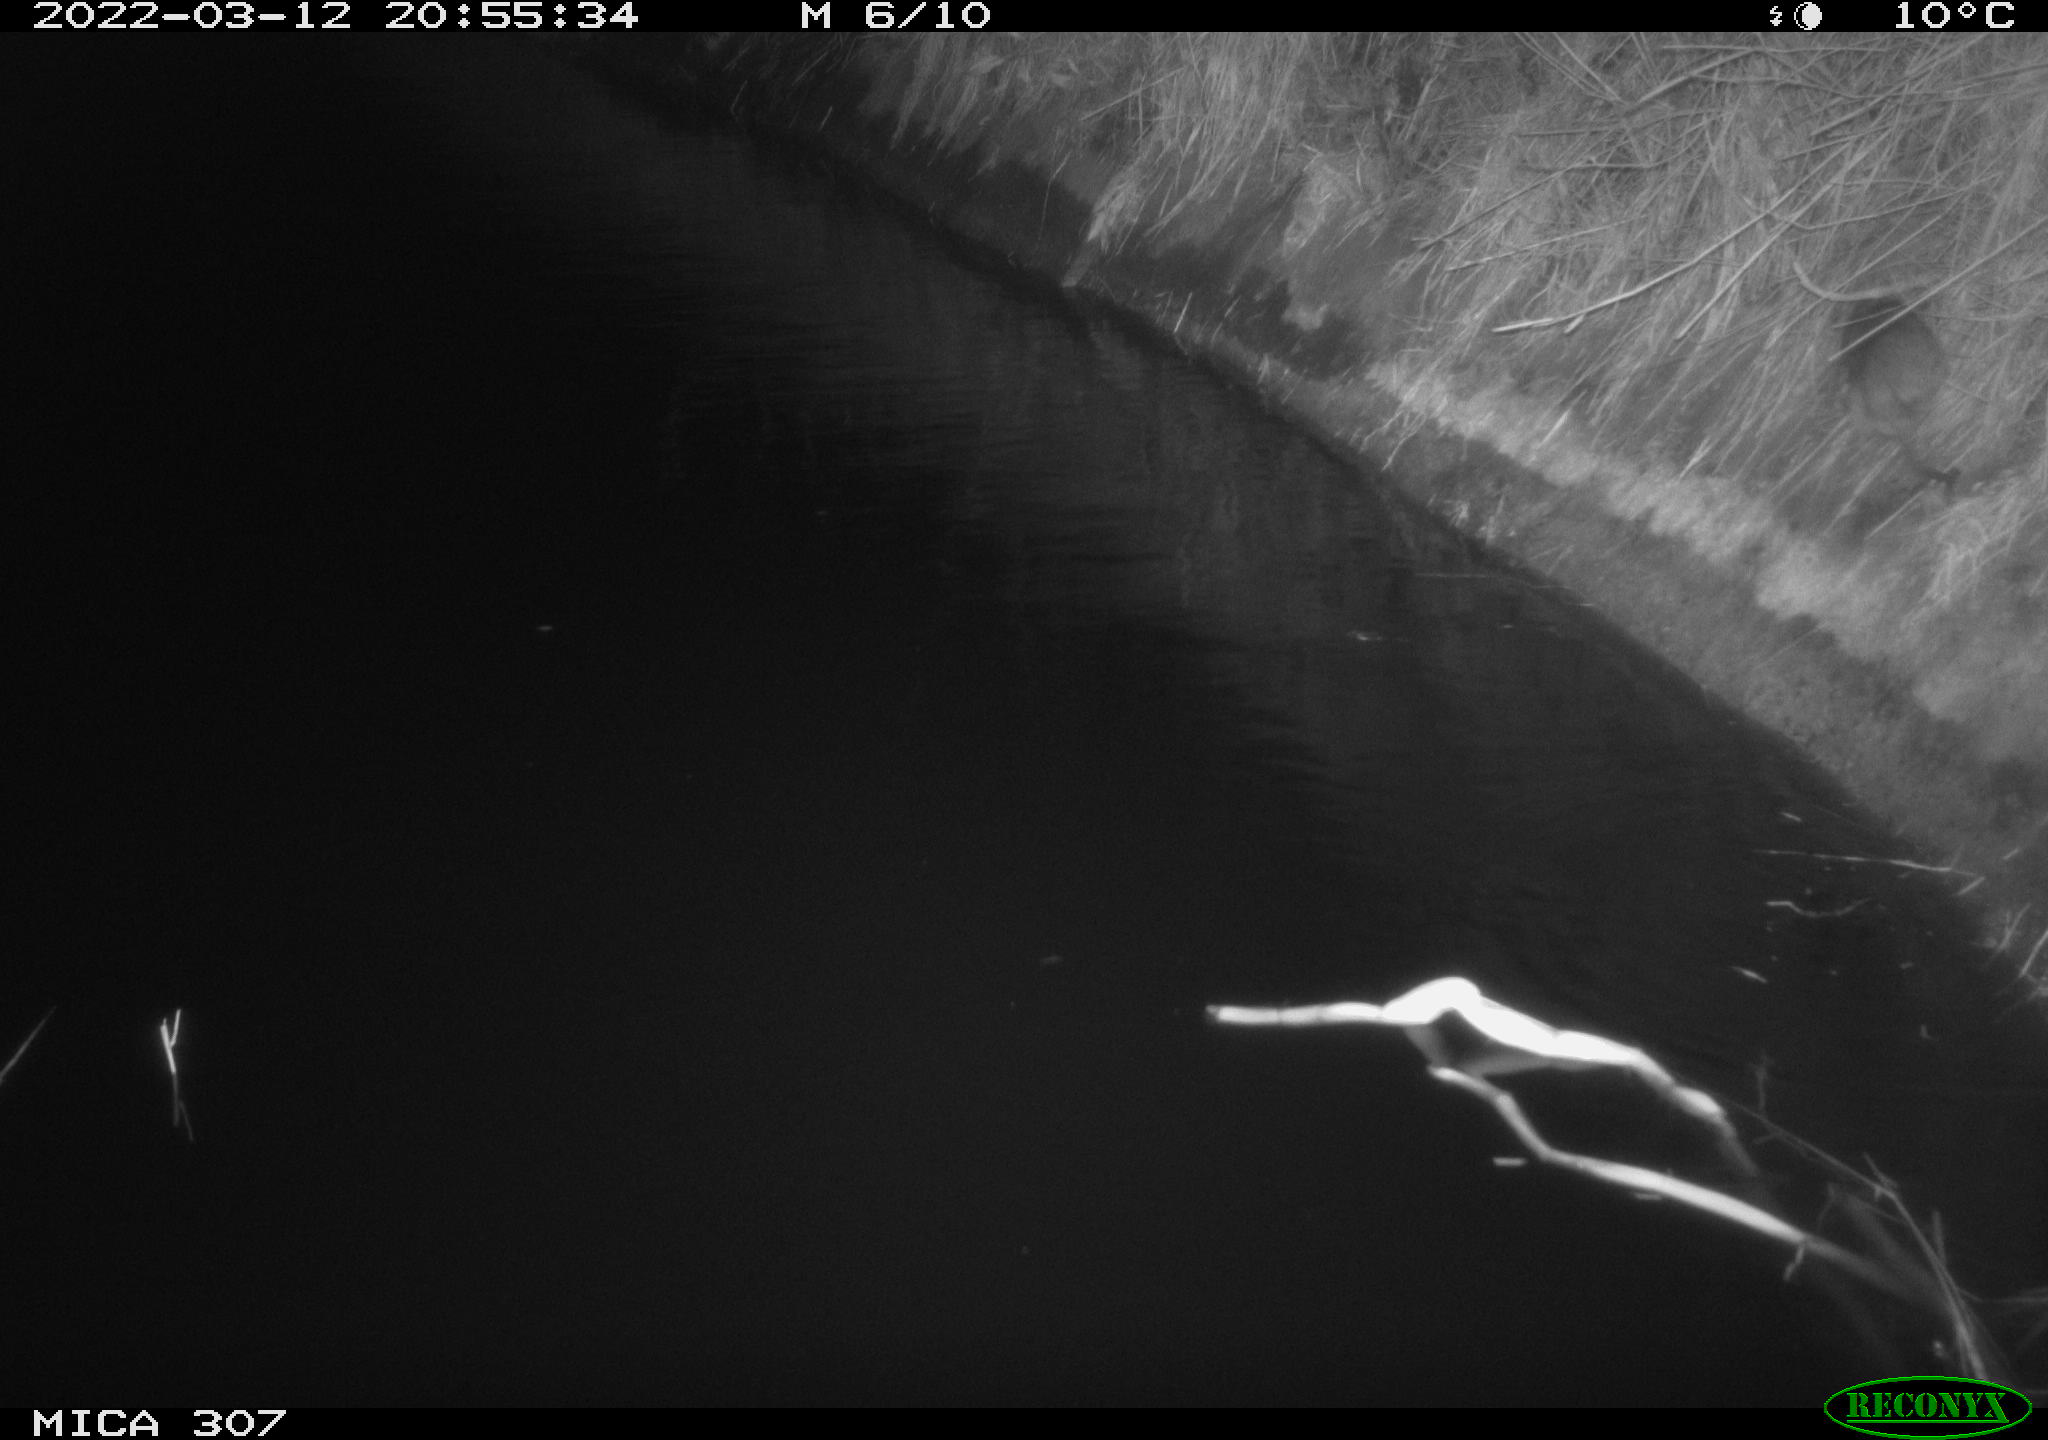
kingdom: Animalia
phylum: Chordata
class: Mammalia
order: Rodentia
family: Muridae
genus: Rattus
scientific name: Rattus norvegicus
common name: Brown rat
